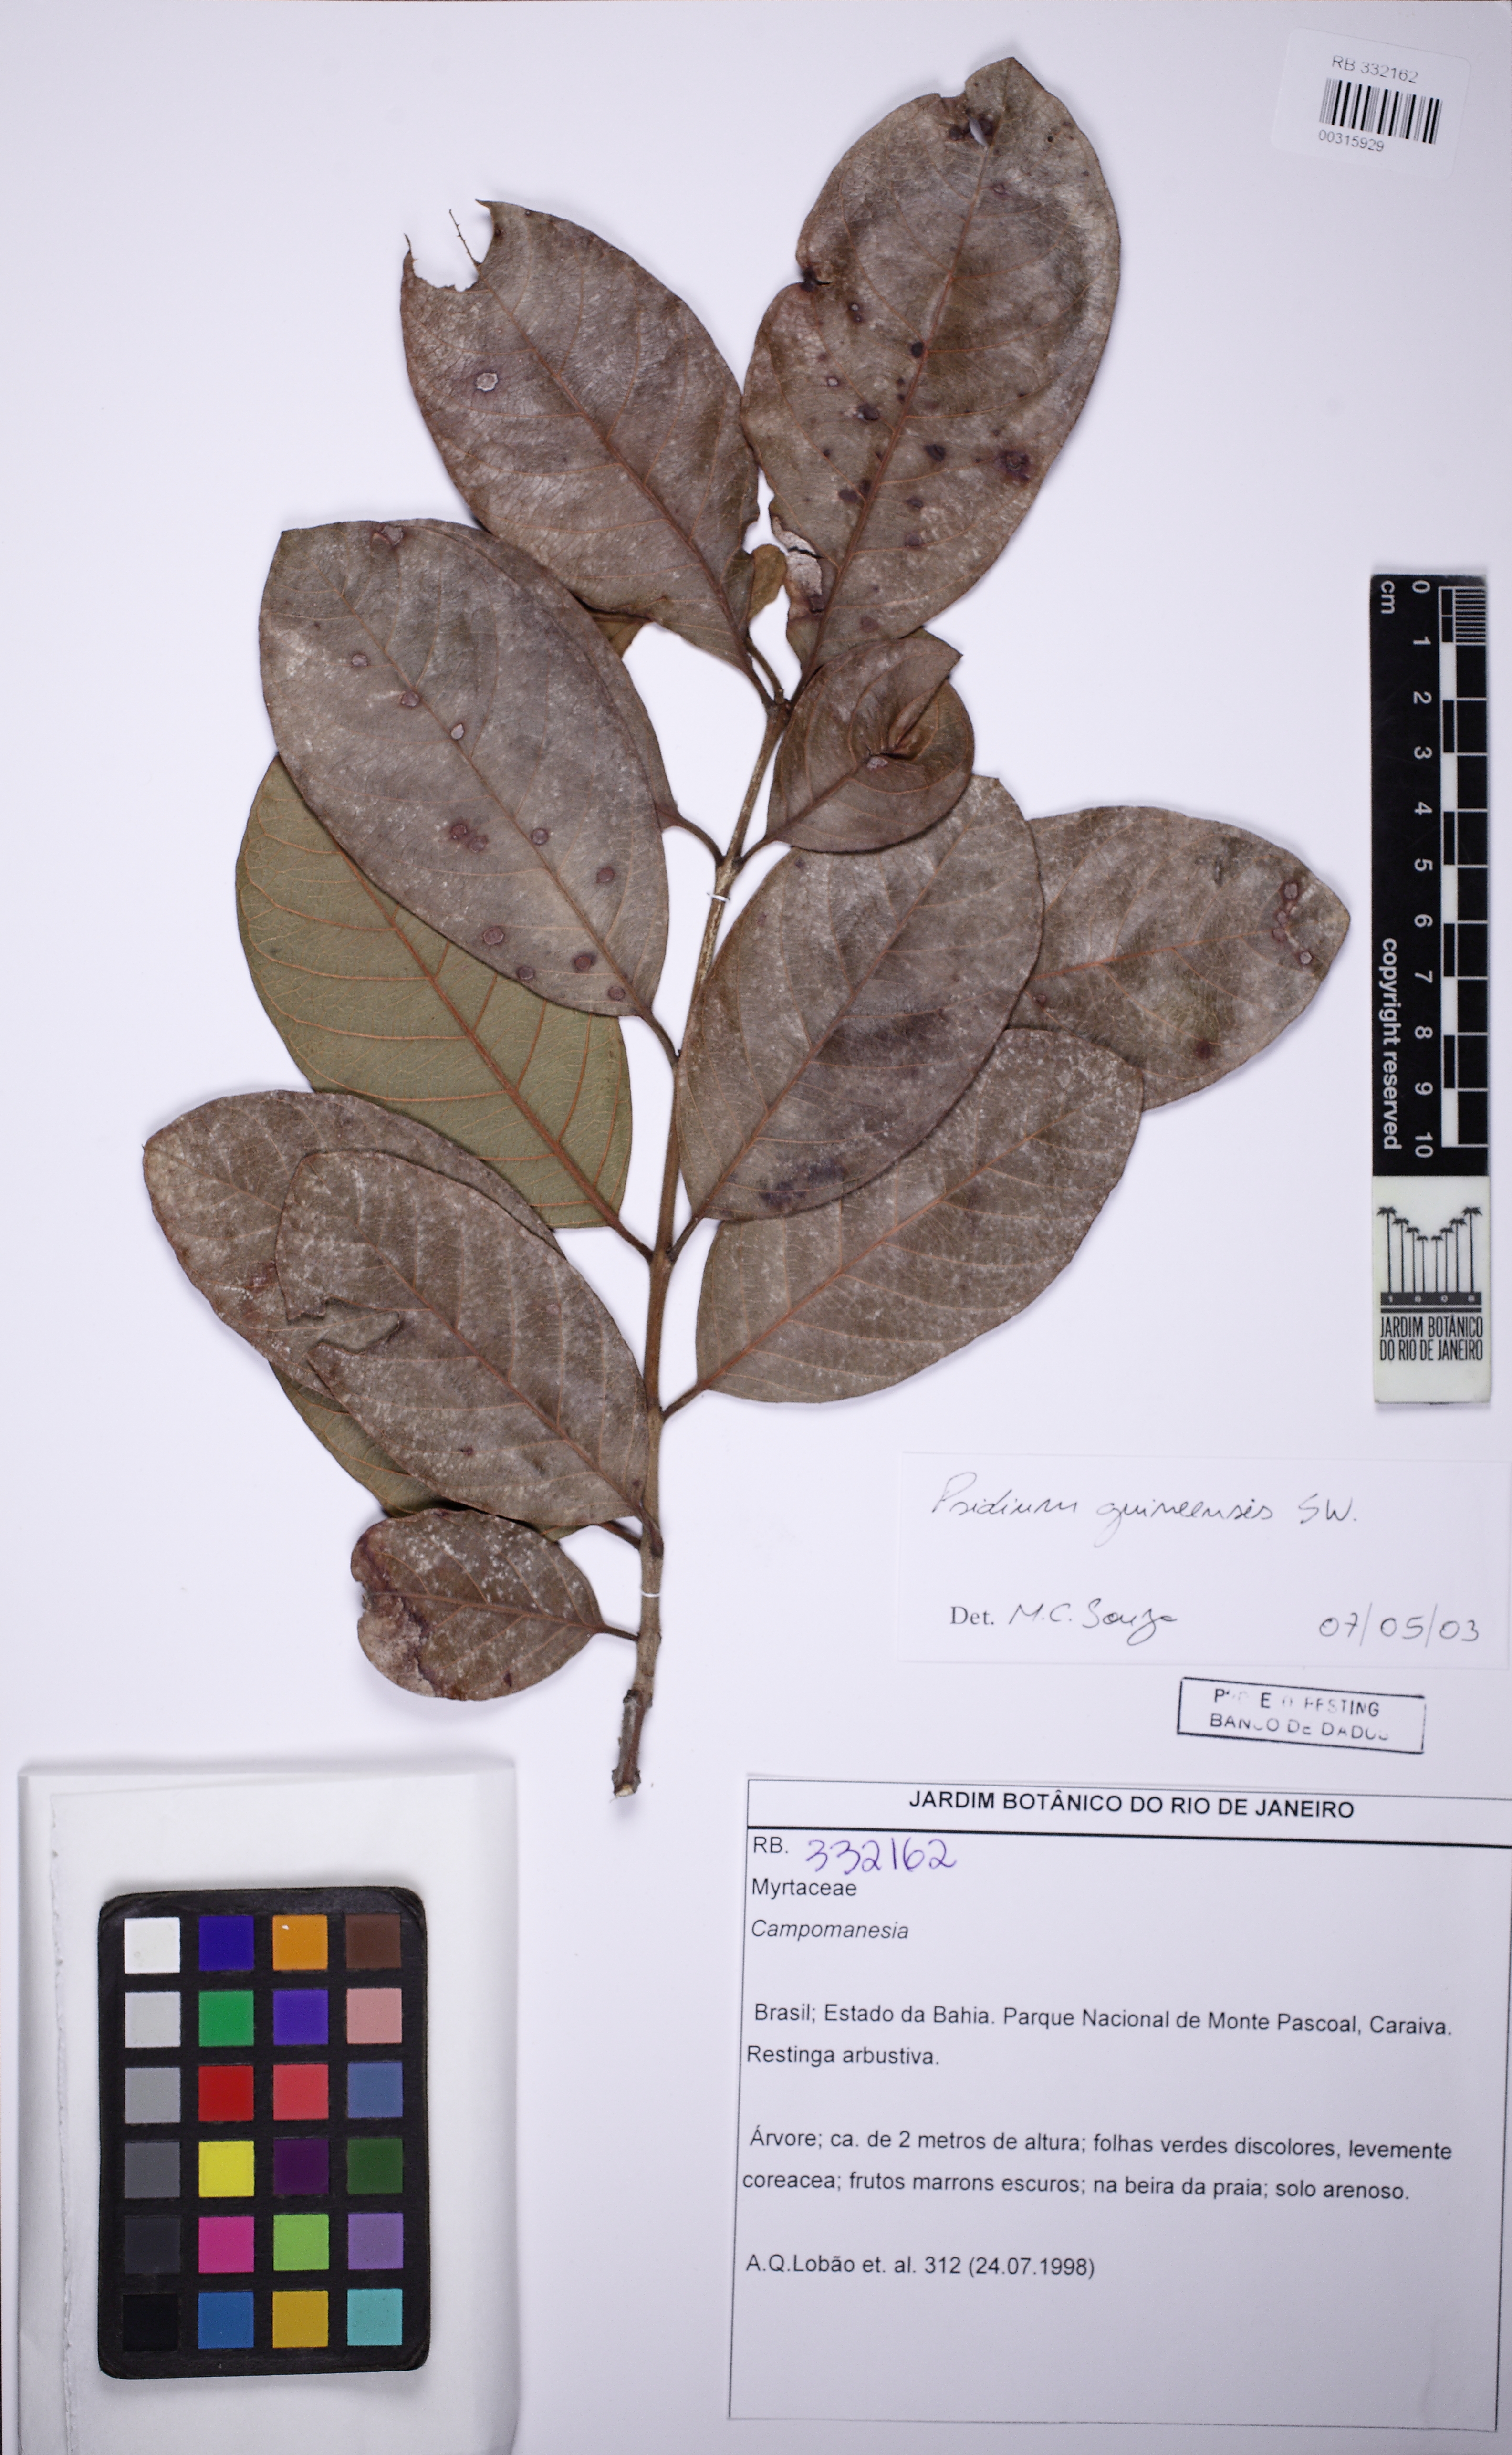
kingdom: Plantae
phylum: Tracheophyta
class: Magnoliopsida
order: Myrtales
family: Myrtaceae
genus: Psidium
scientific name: Psidium guineense
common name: Brazilian guava
